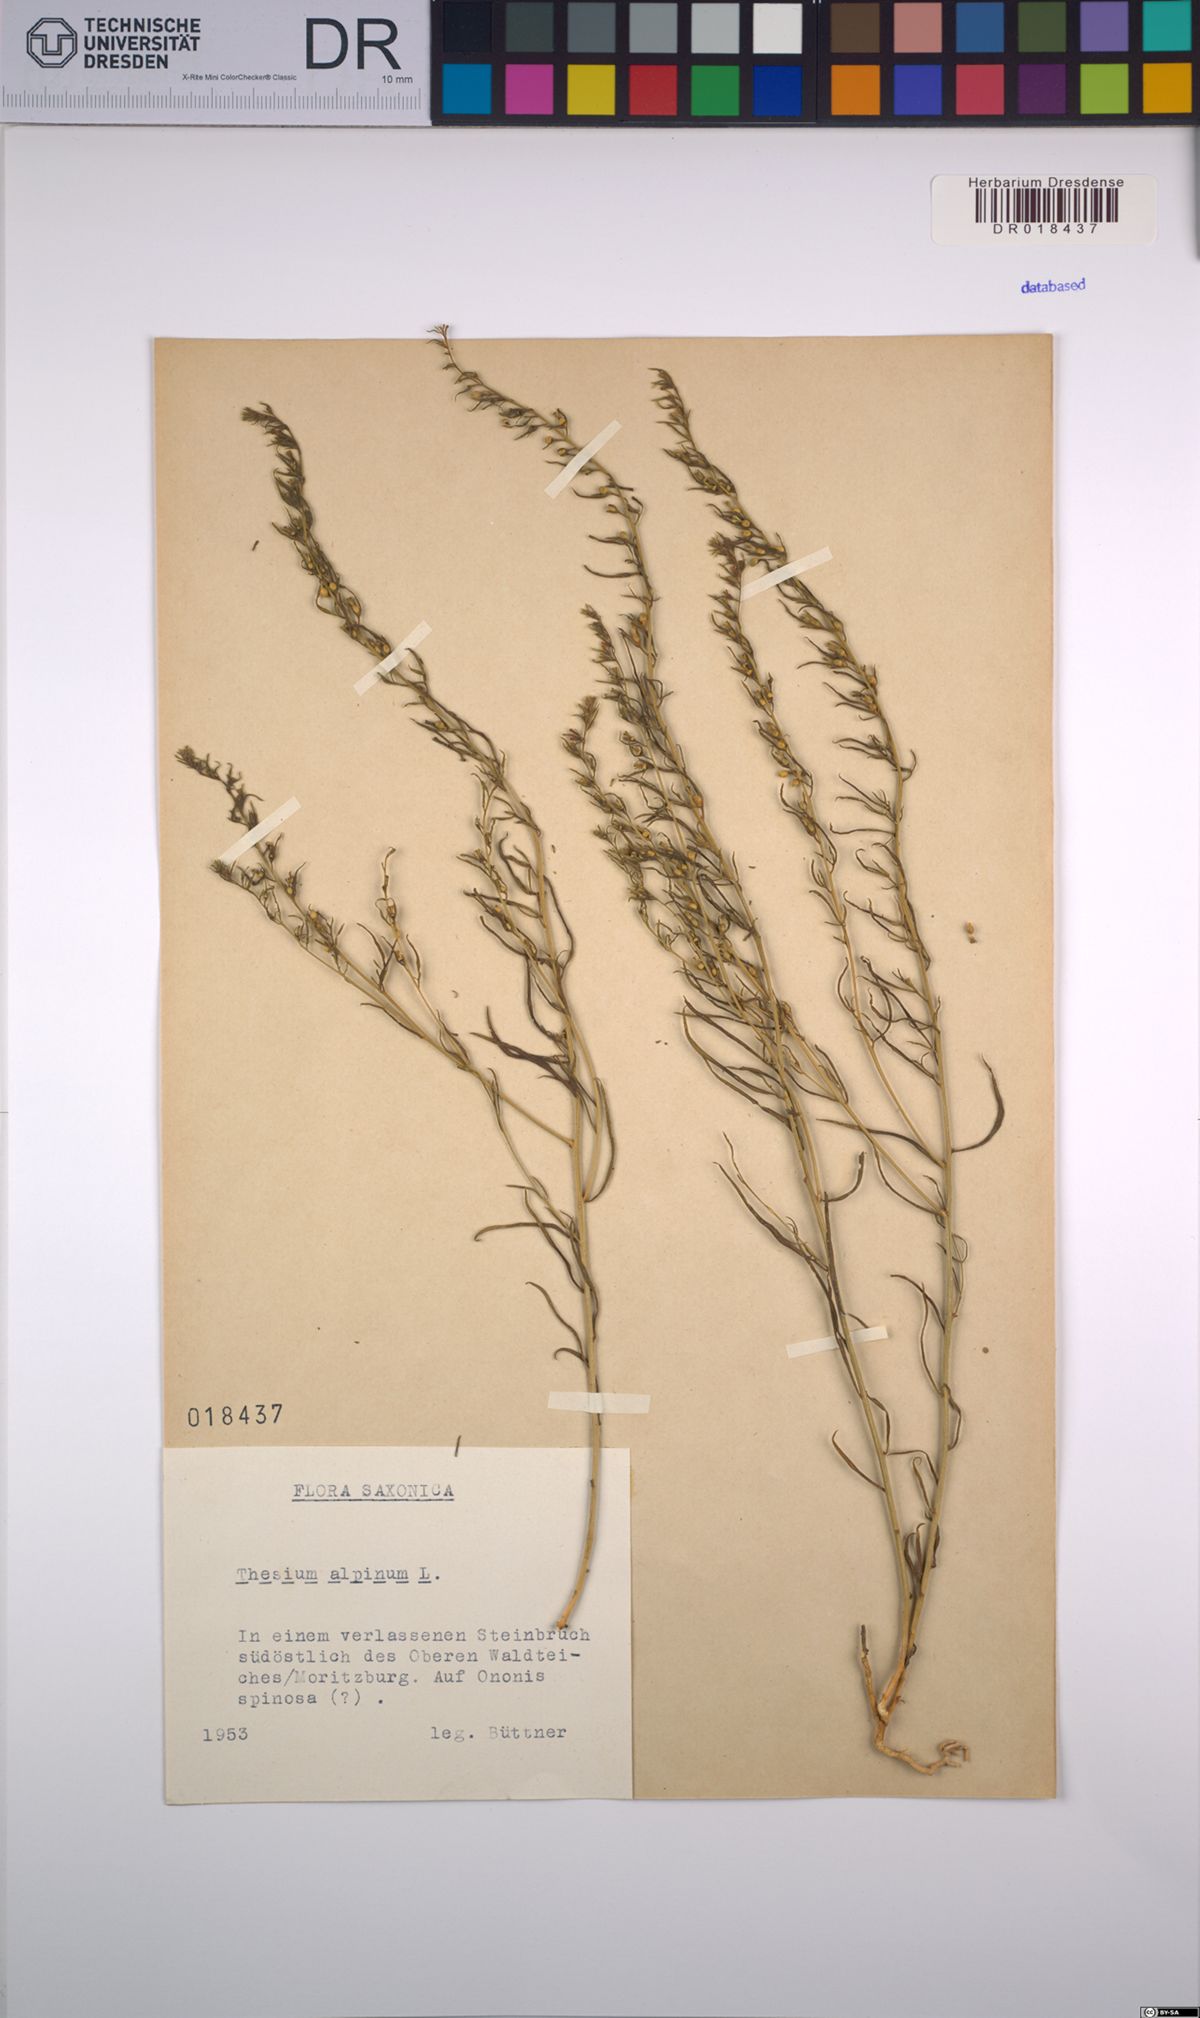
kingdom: Plantae
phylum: Tracheophyta
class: Magnoliopsida
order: Santalales
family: Thesiaceae
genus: Thesium
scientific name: Thesium alpinum
